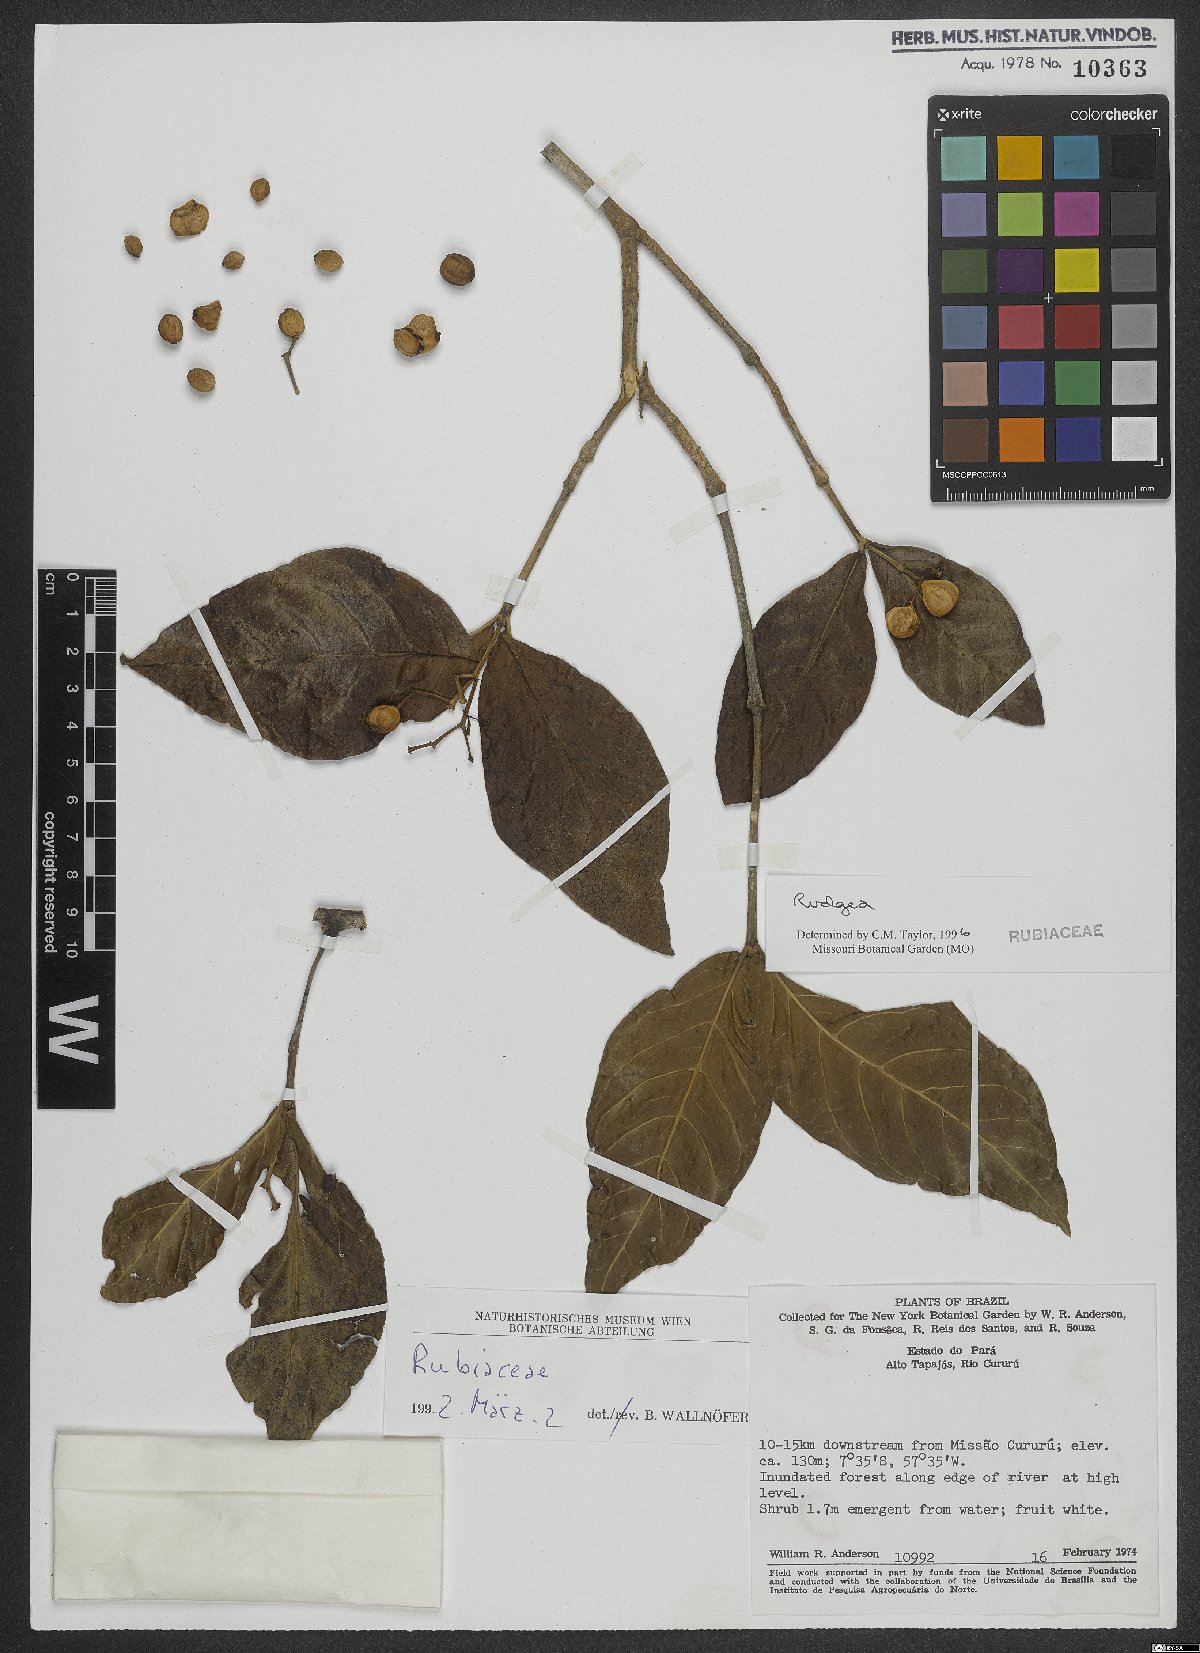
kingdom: Plantae
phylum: Tracheophyta
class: Magnoliopsida
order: Gentianales
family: Rubiaceae
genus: Rudgea
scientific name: Rudgea
